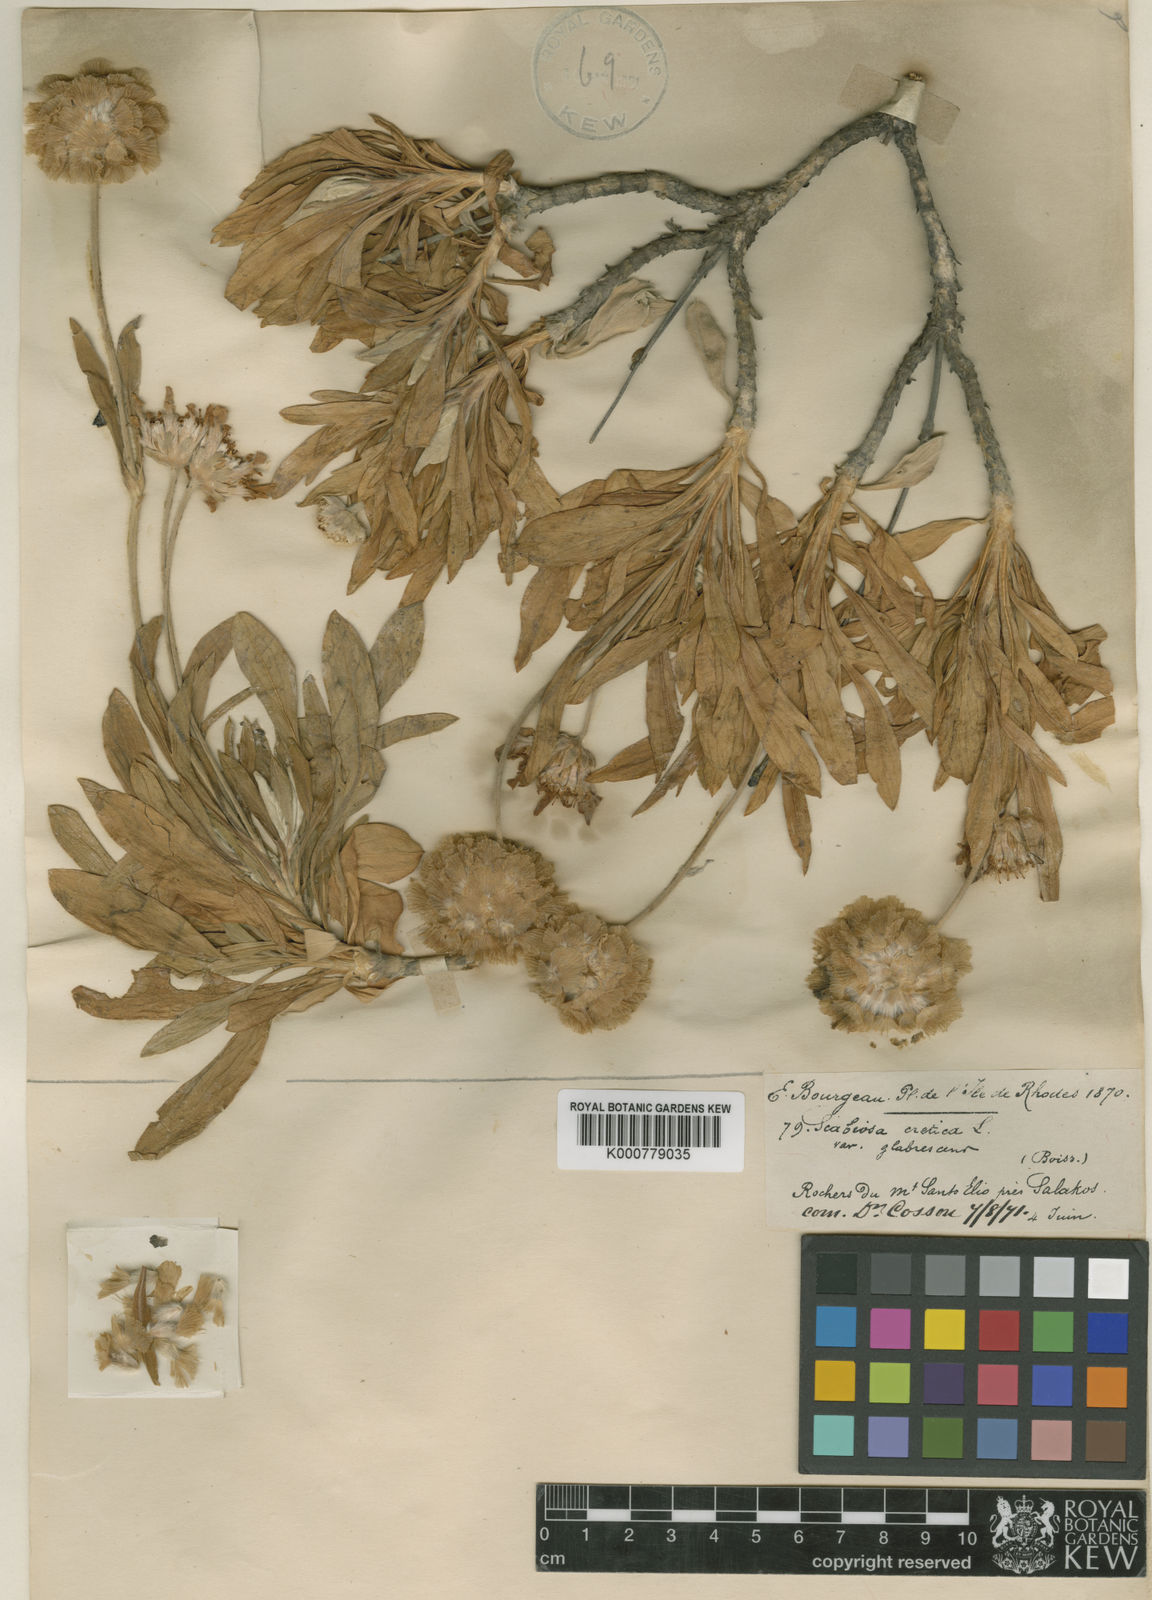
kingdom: Plantae
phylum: Tracheophyta
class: Magnoliopsida
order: Dipsacales
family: Caprifoliaceae
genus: Lomelosia
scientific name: Lomelosia gumbetica
